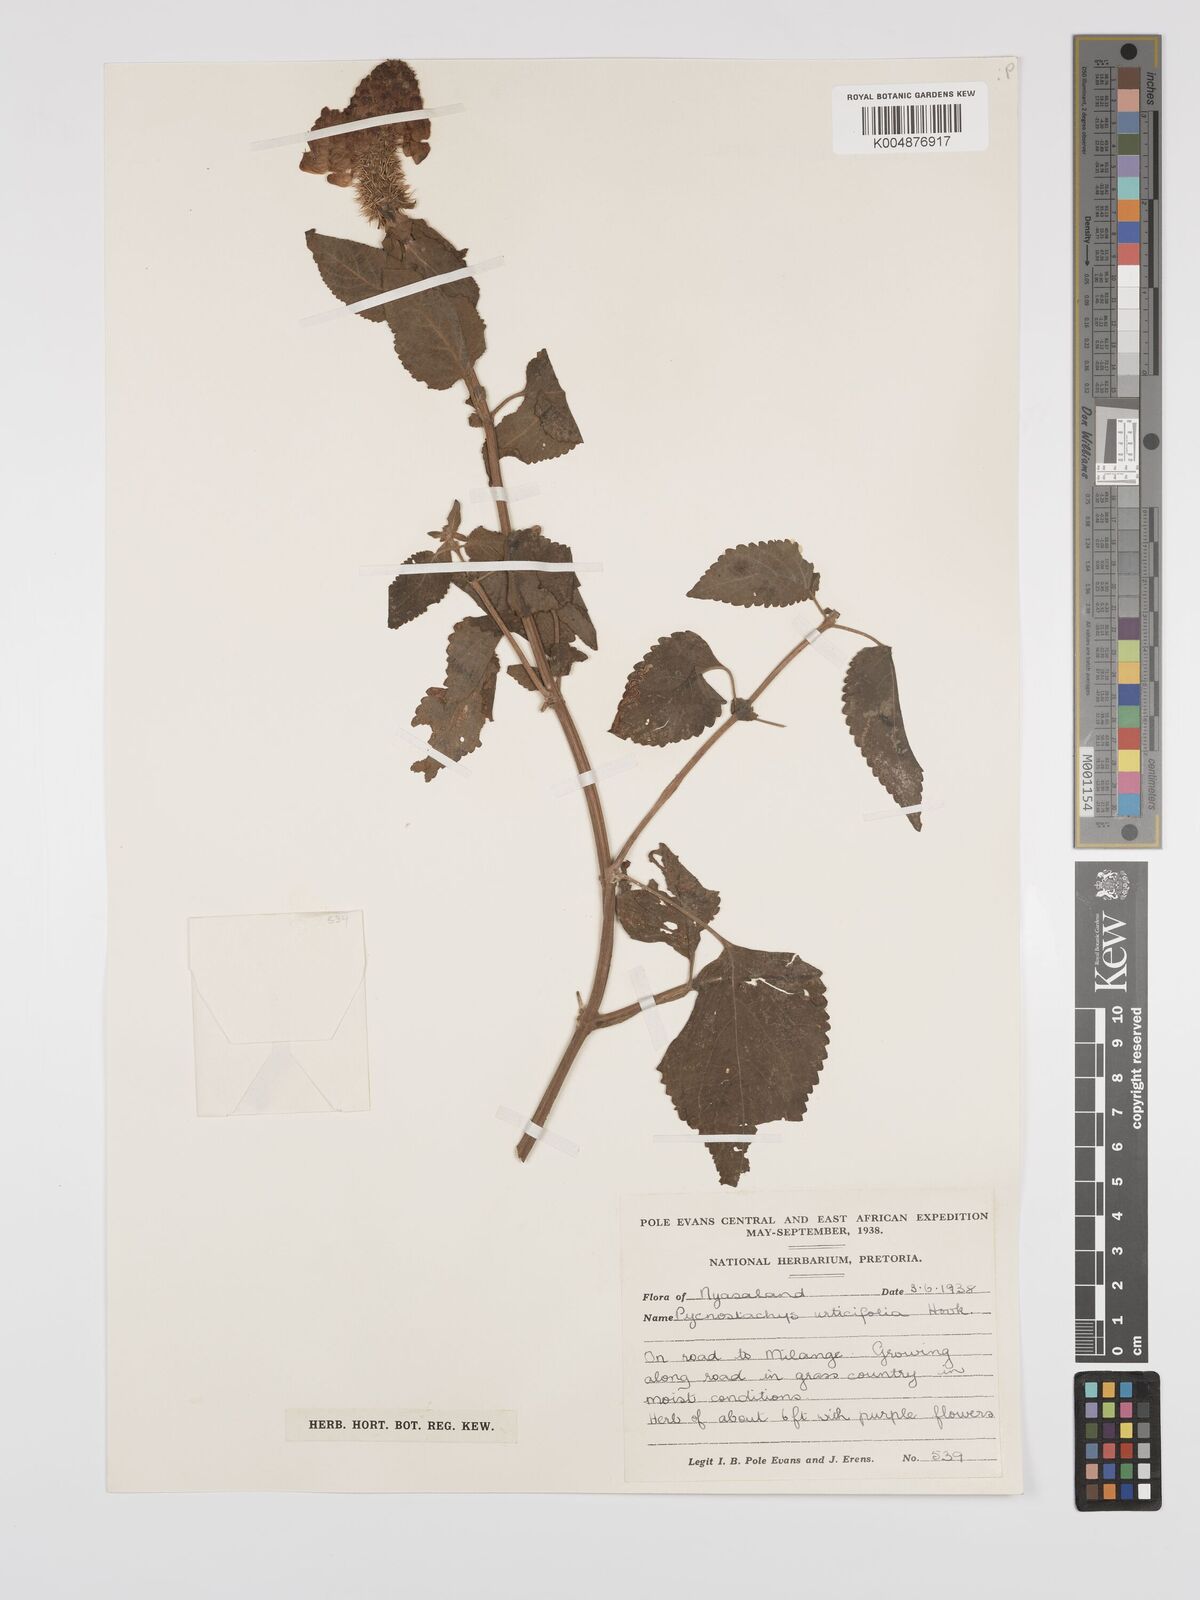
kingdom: Plantae
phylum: Tracheophyta
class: Magnoliopsida
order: Lamiales
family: Lamiaceae
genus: Coleus
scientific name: Coleus livingstonei
